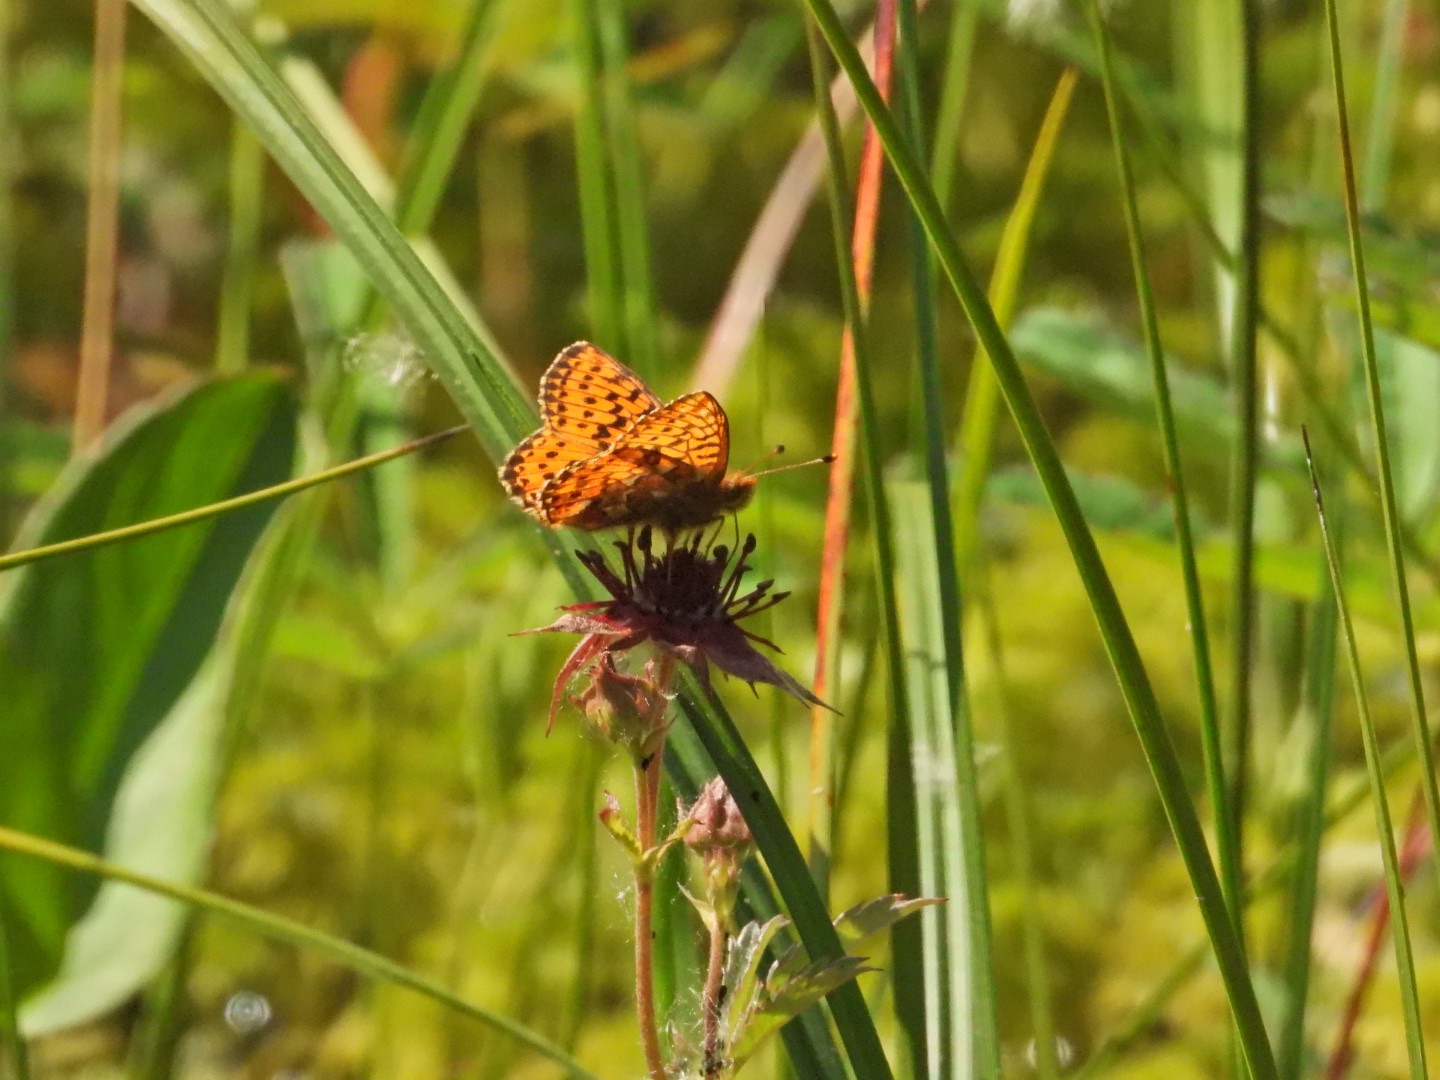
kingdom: Animalia
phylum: Arthropoda
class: Insecta
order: Lepidoptera
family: Nymphalidae
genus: Boloria
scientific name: Boloria aquilonaris
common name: Moseperlemorsommerfugl
